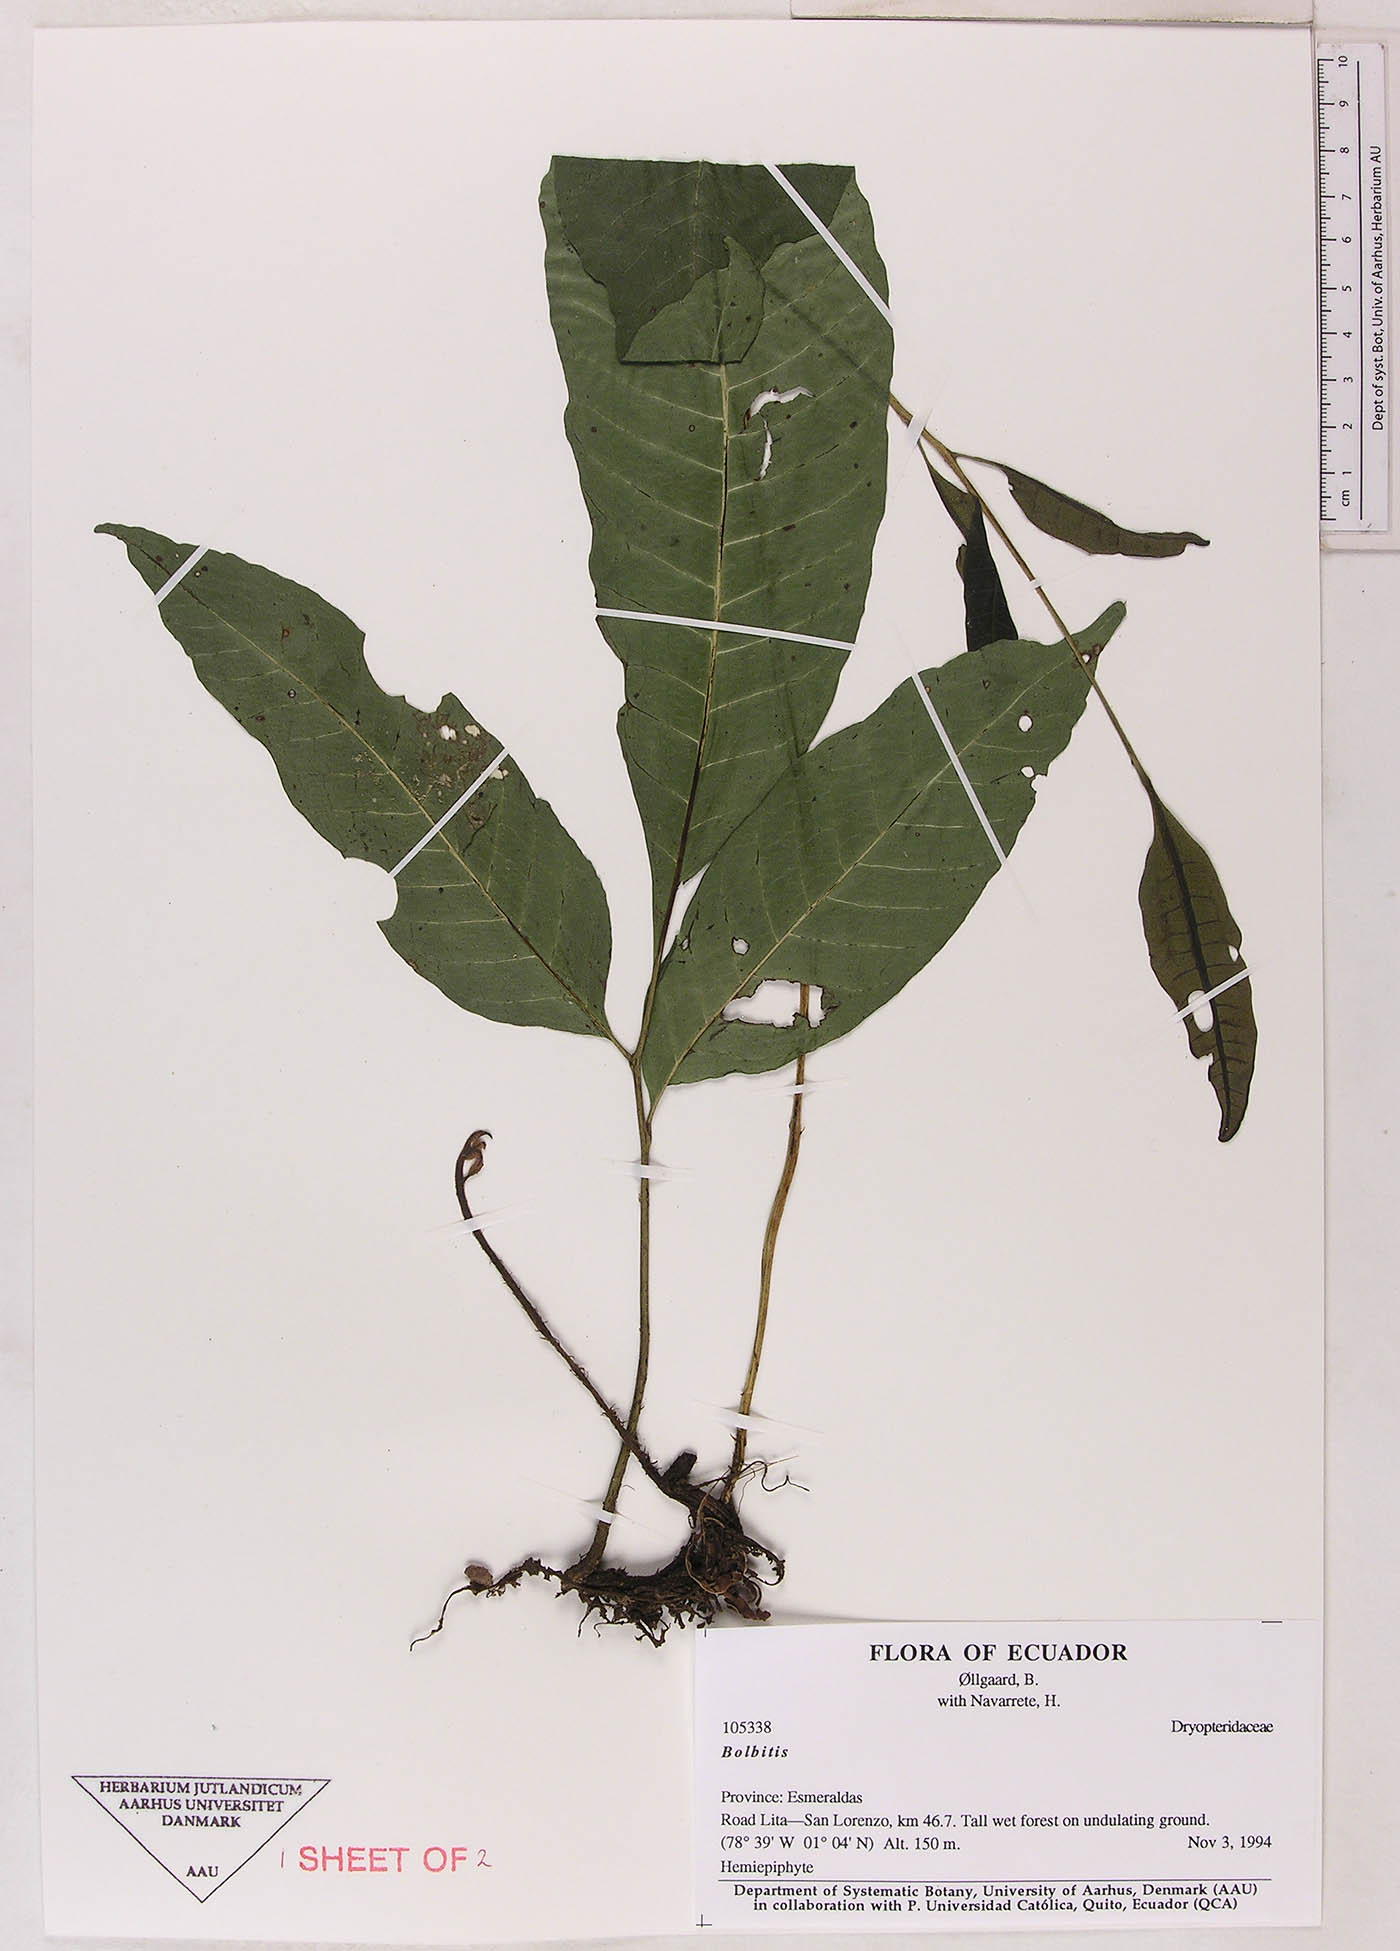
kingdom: Plantae
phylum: Tracheophyta
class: Polypodiopsida
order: Polypodiales
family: Dryopteridaceae
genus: Bolbitis
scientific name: Bolbitis
